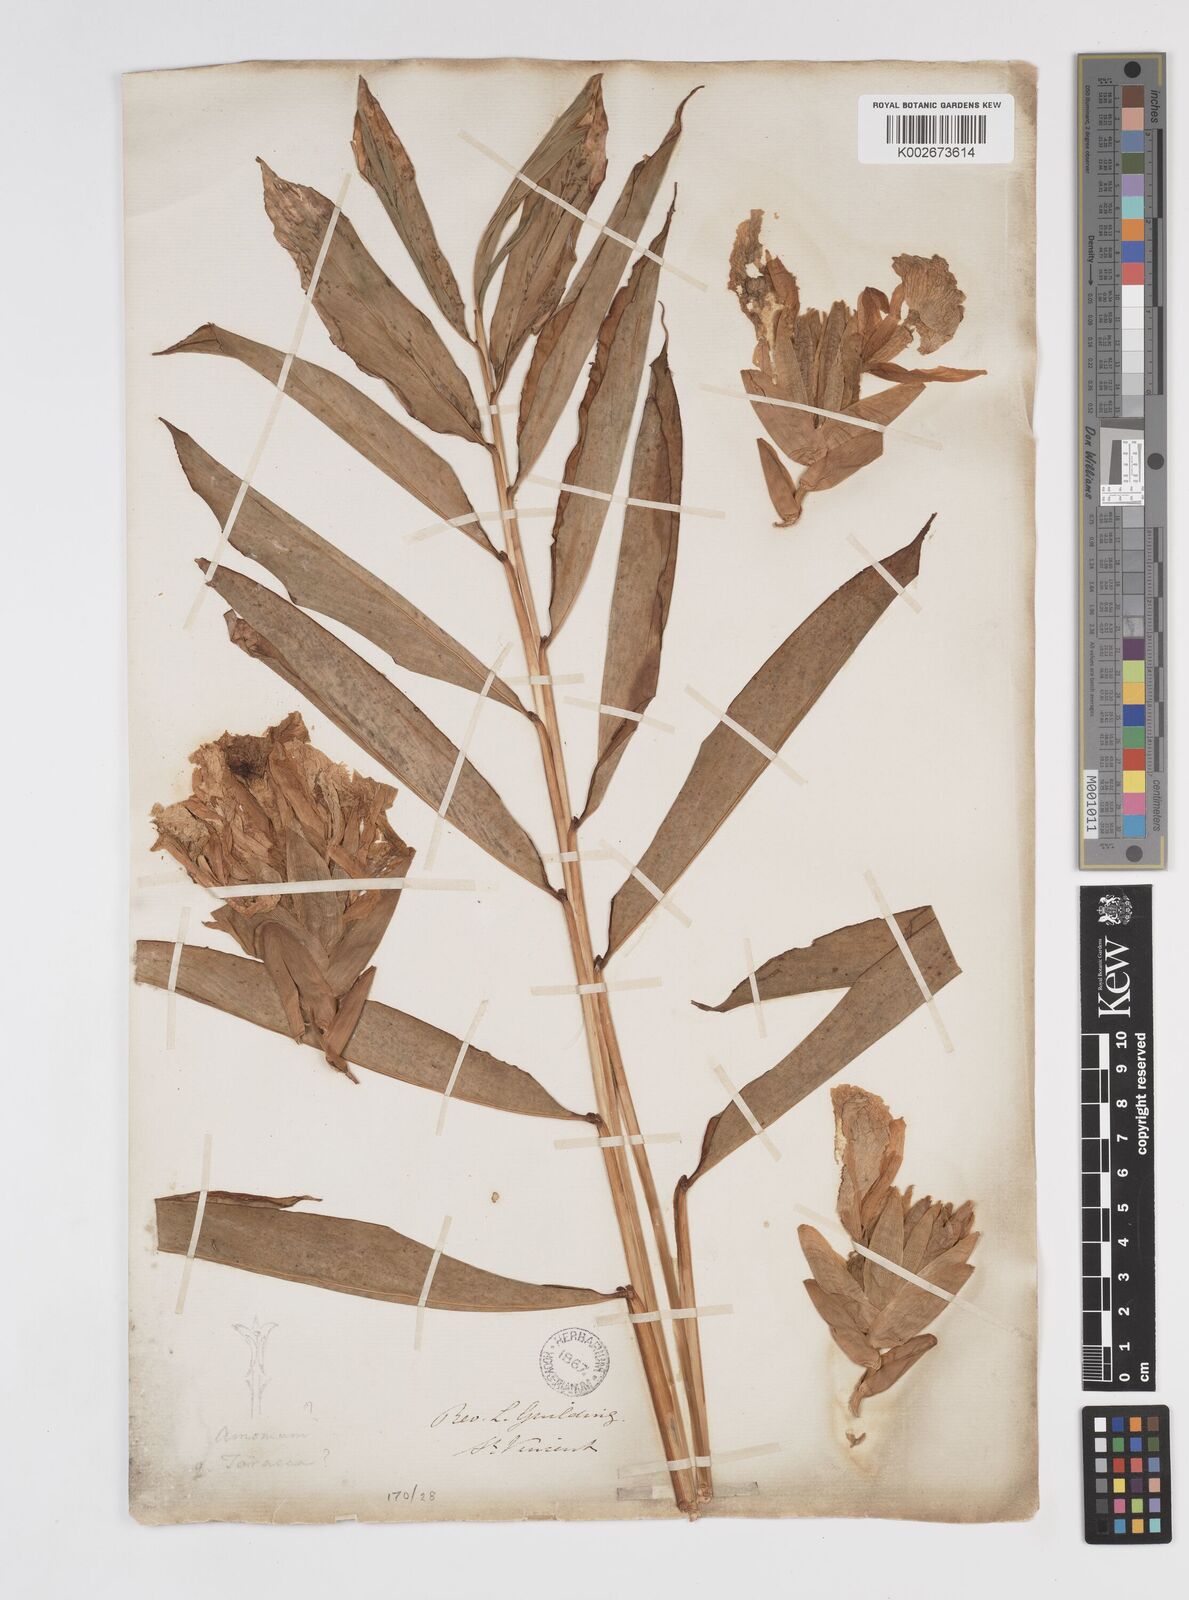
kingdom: Plantae
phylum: Tracheophyta
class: Liliopsida
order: Zingiberales
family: Zingiberaceae
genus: Amomum
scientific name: Amomum
